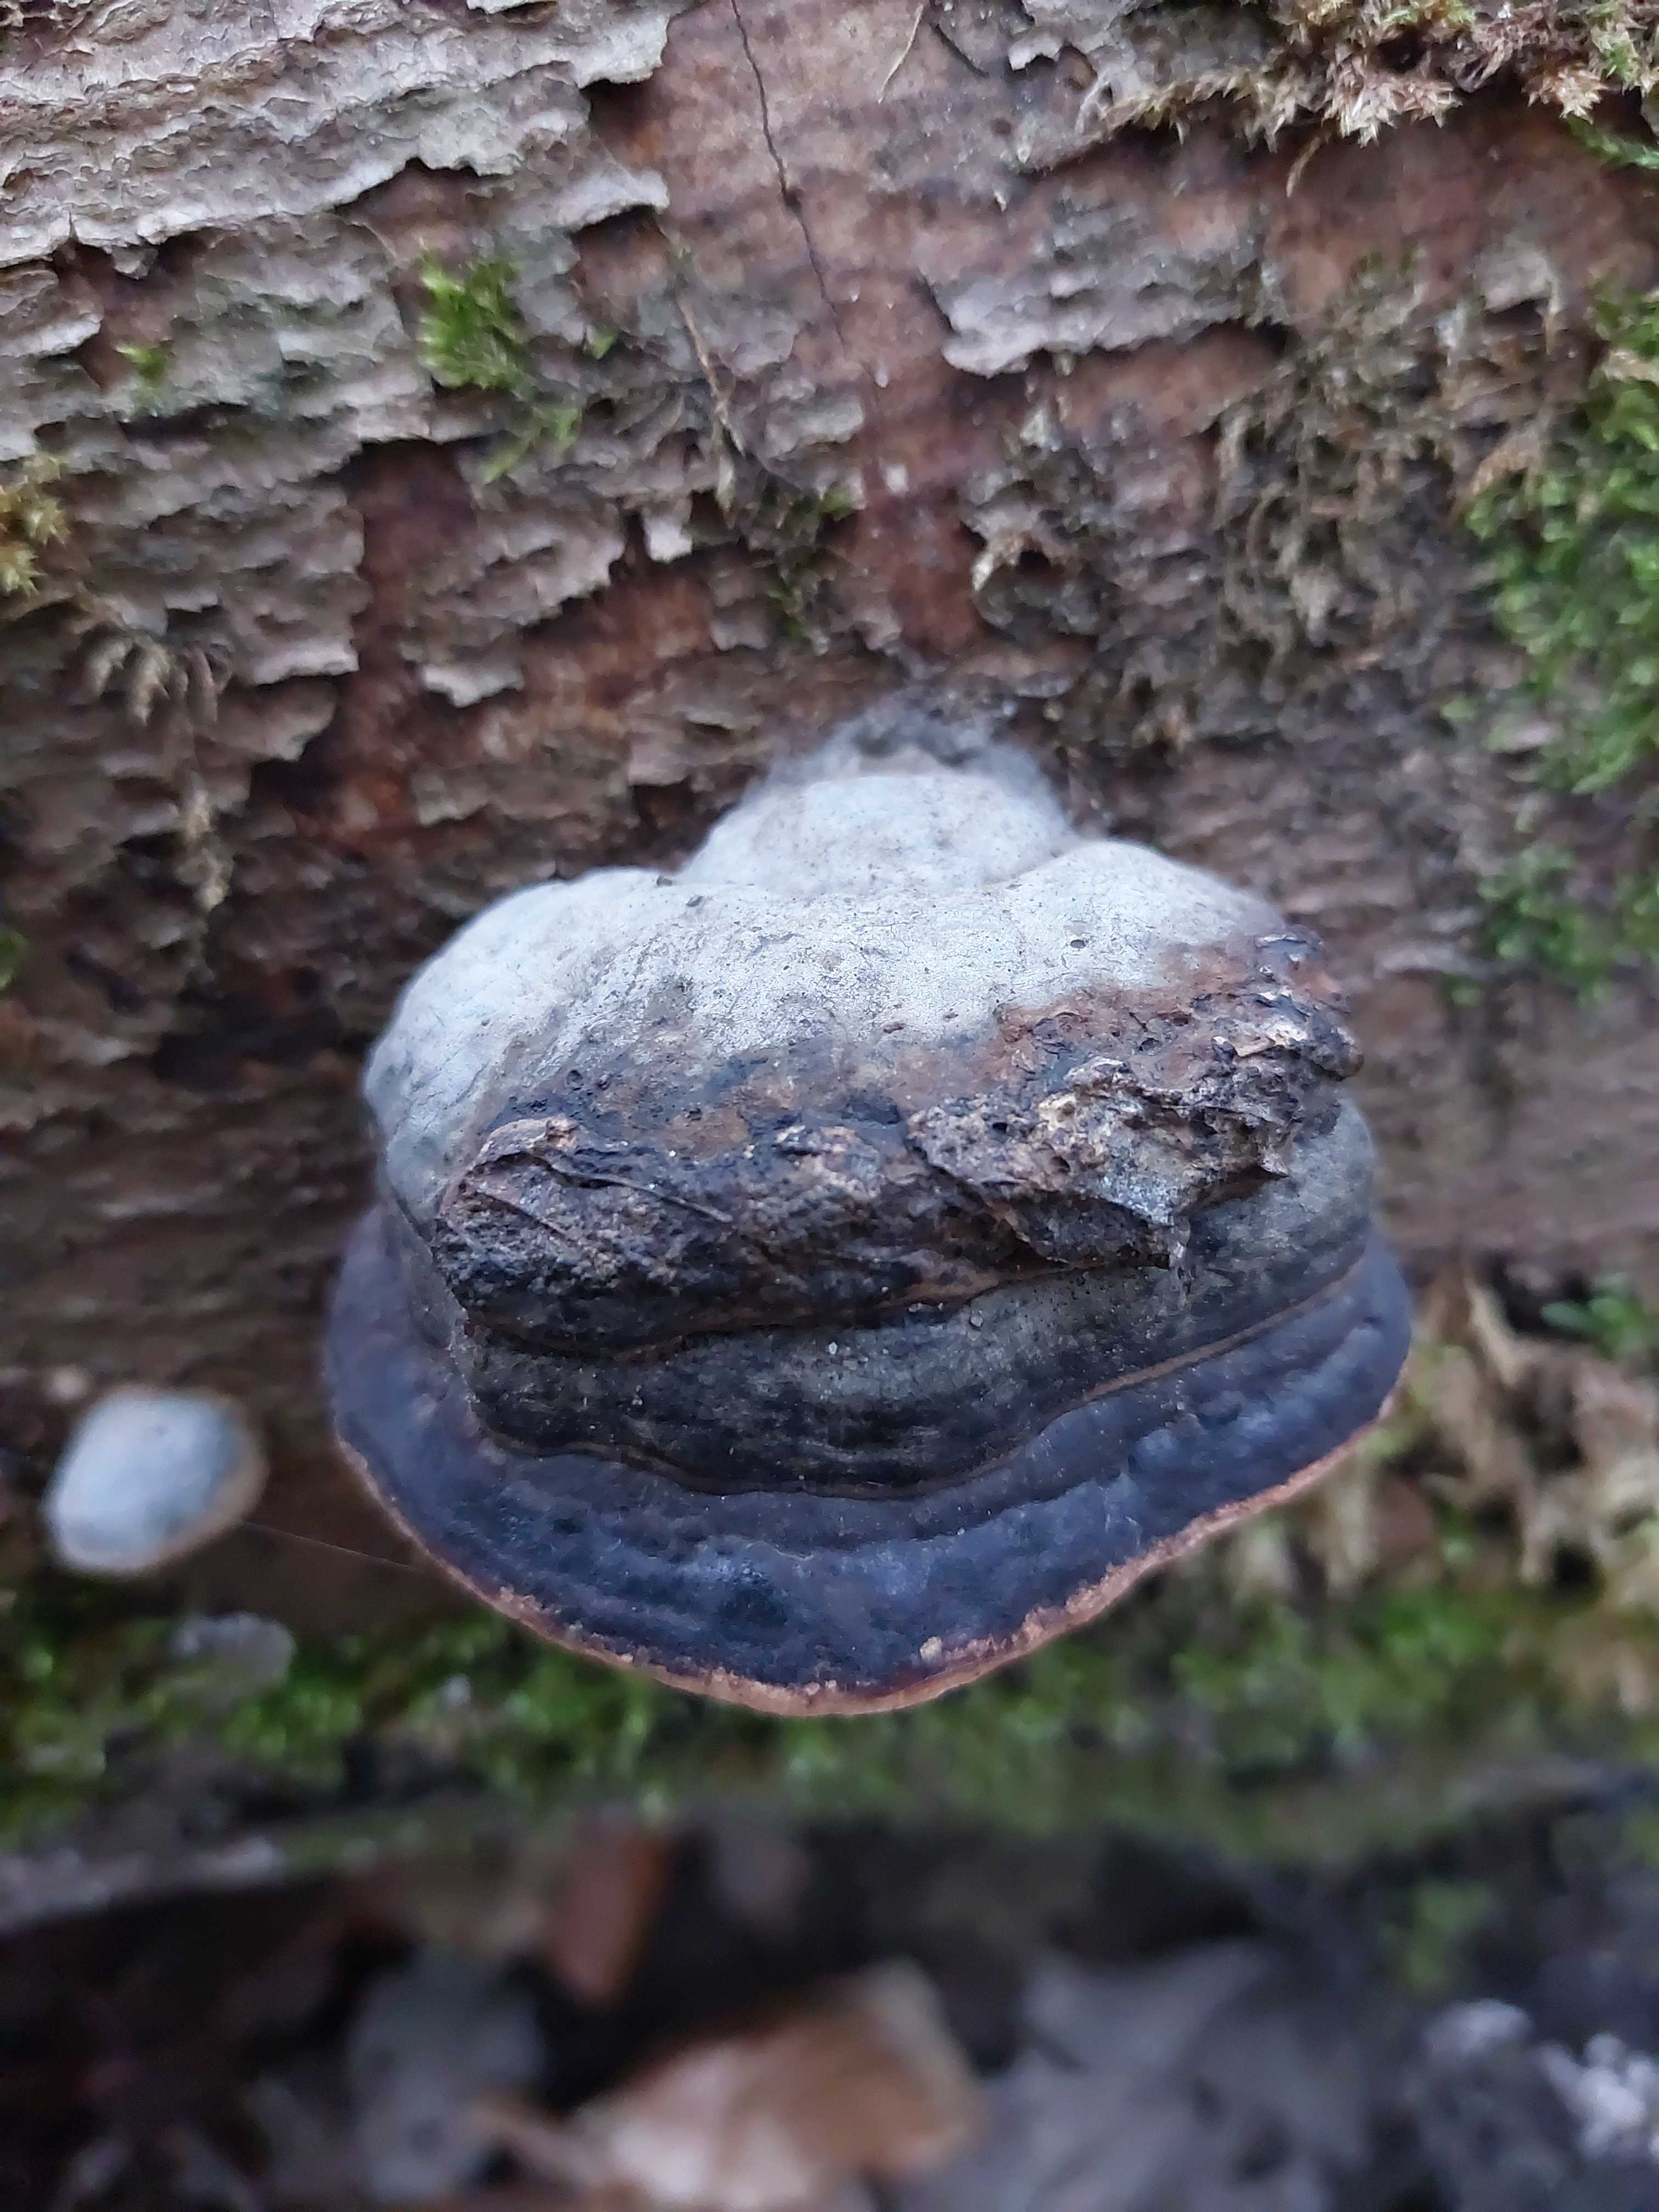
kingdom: Fungi
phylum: Basidiomycota
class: Agaricomycetes
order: Polyporales
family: Fomitopsidaceae
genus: Fomitopsis
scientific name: Fomitopsis pinicola
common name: randbæltet hovporesvamp
